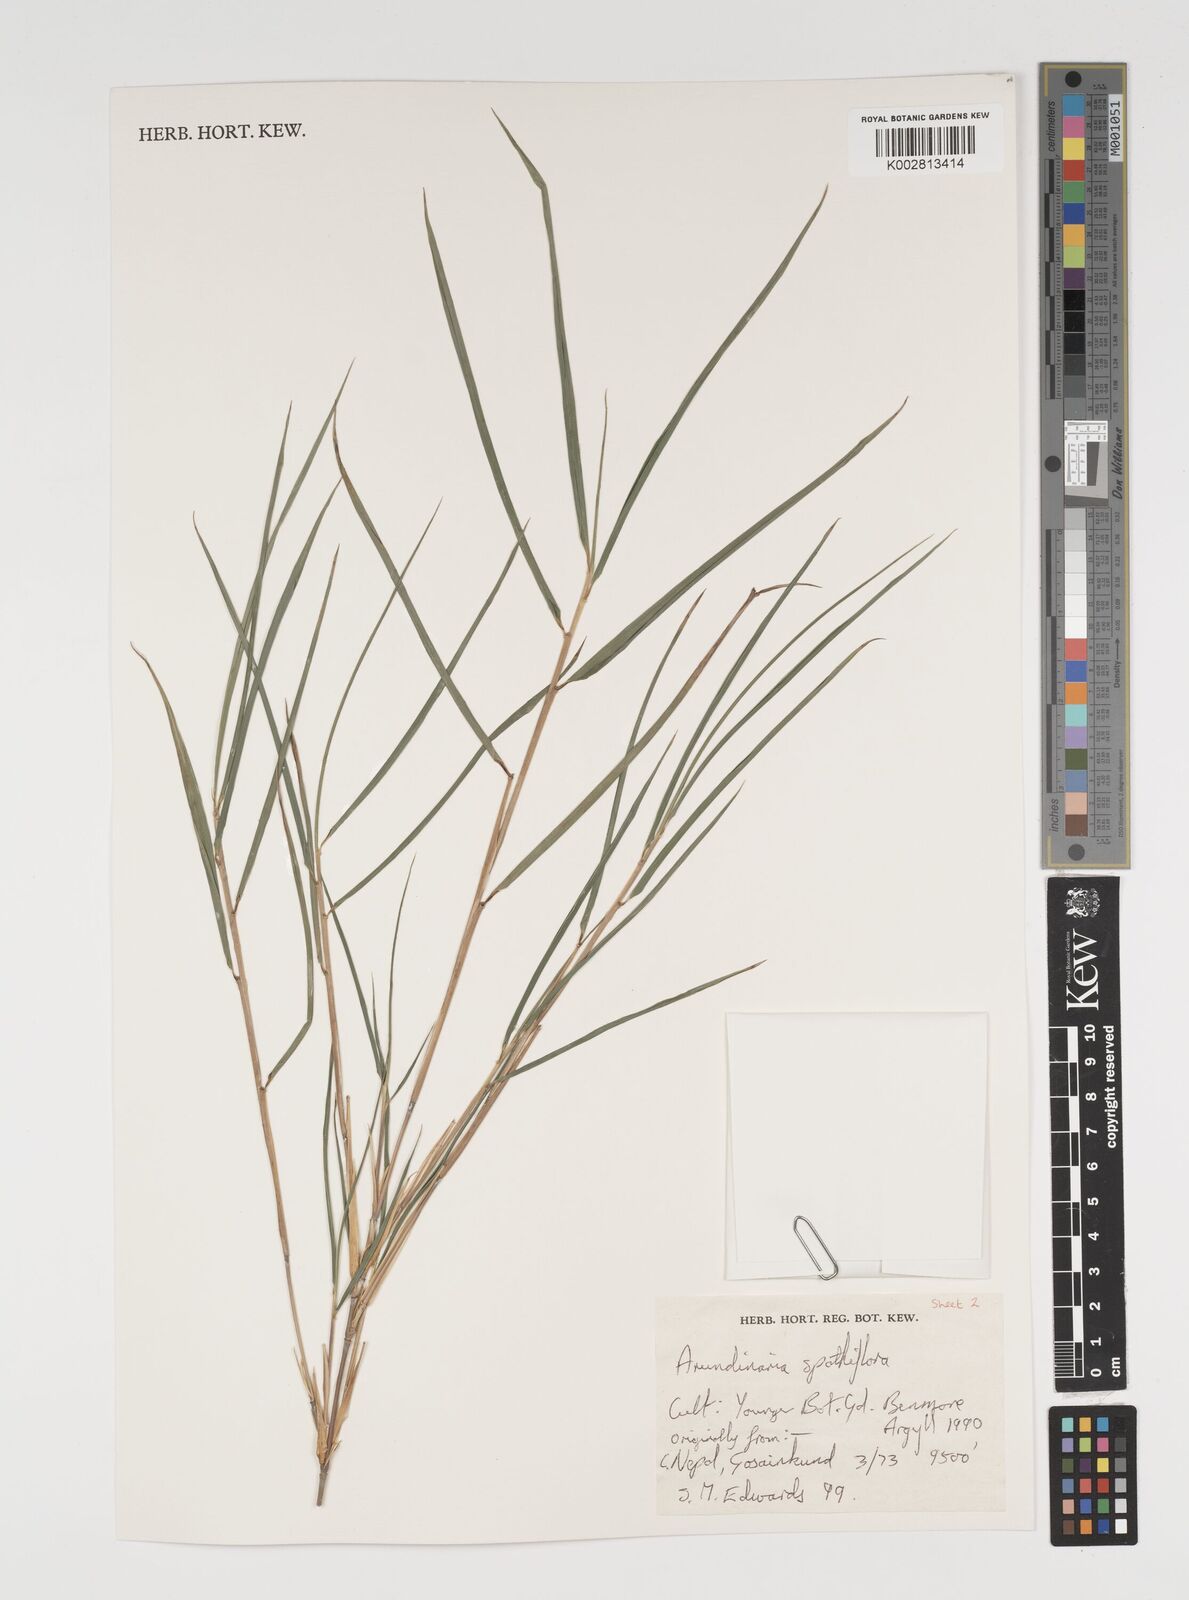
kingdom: Plantae
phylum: Tracheophyta
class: Liliopsida
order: Poales
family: Poaceae
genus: Thamnocalamus
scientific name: Thamnocalamus crassinodus
